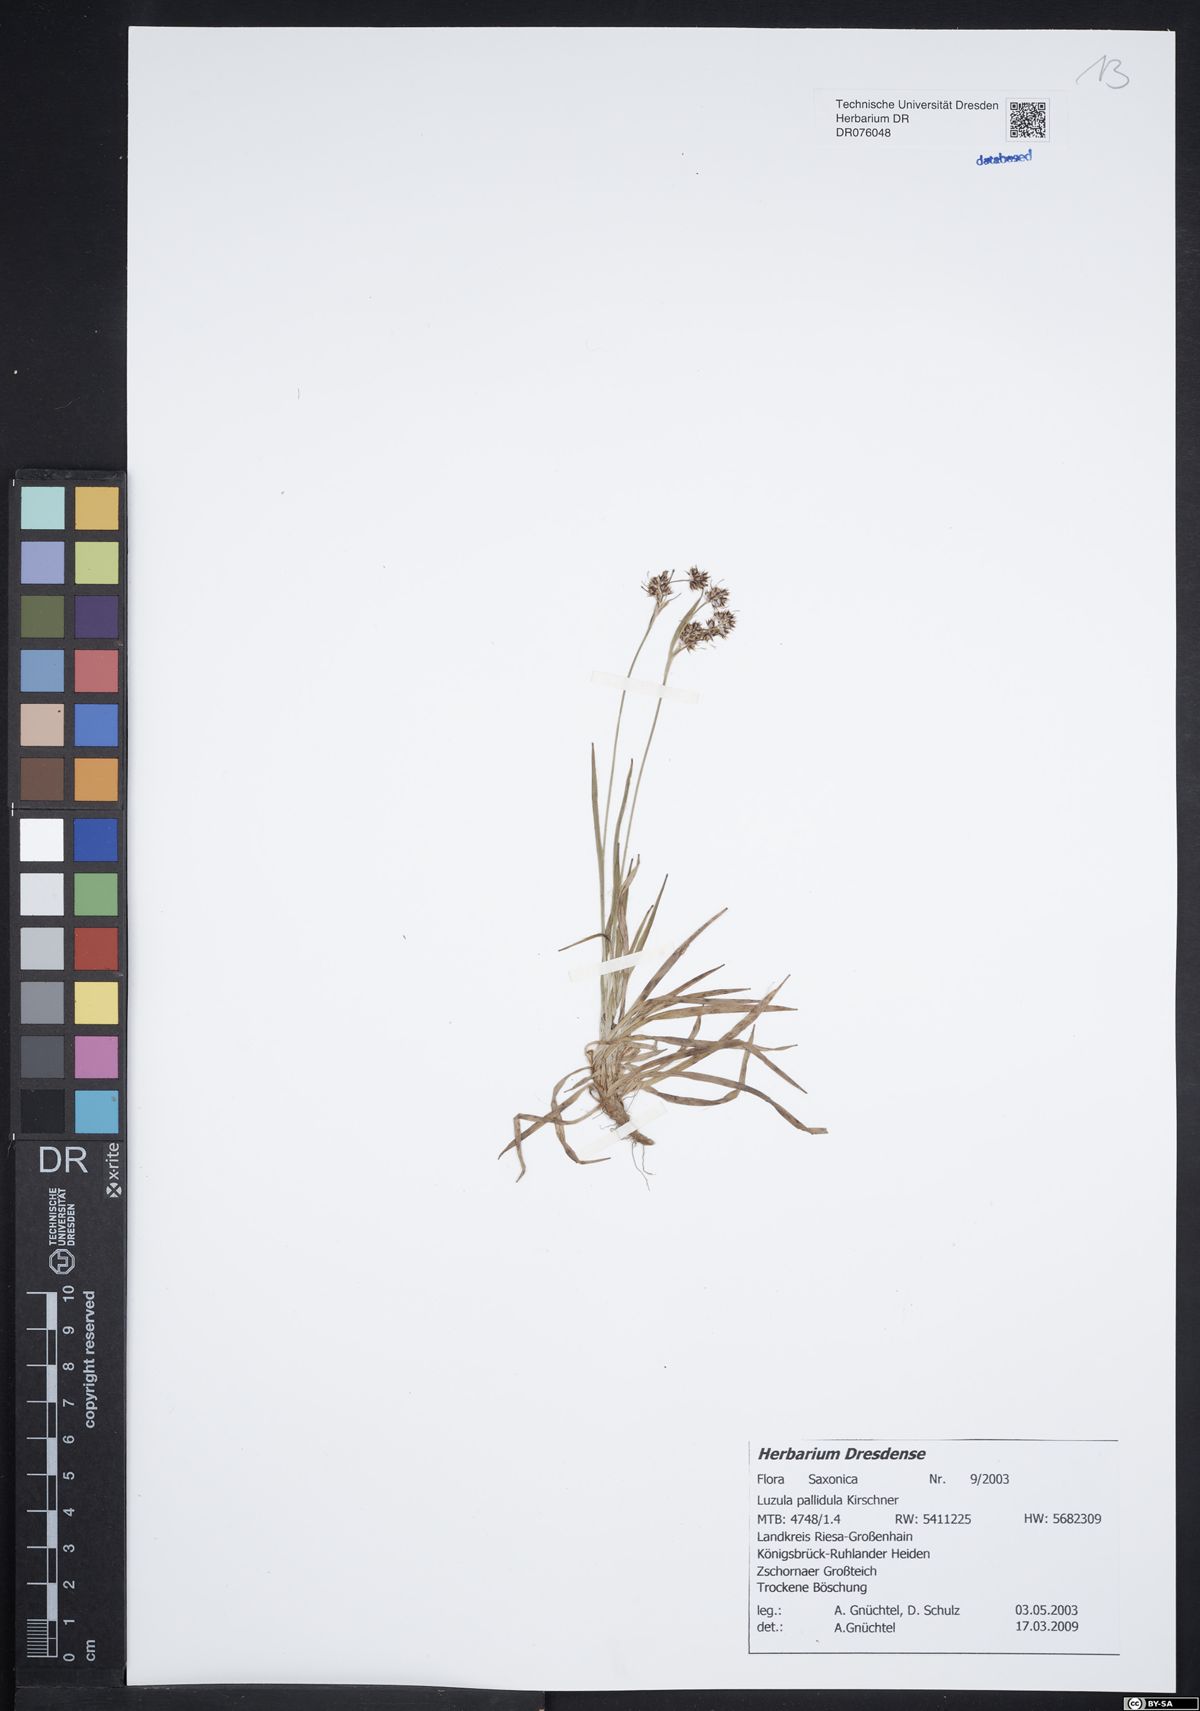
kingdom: Plantae
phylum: Tracheophyta
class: Liliopsida
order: Poales
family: Juncaceae
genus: Luzula
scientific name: Luzula pallescens
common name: Fen wood-rush
